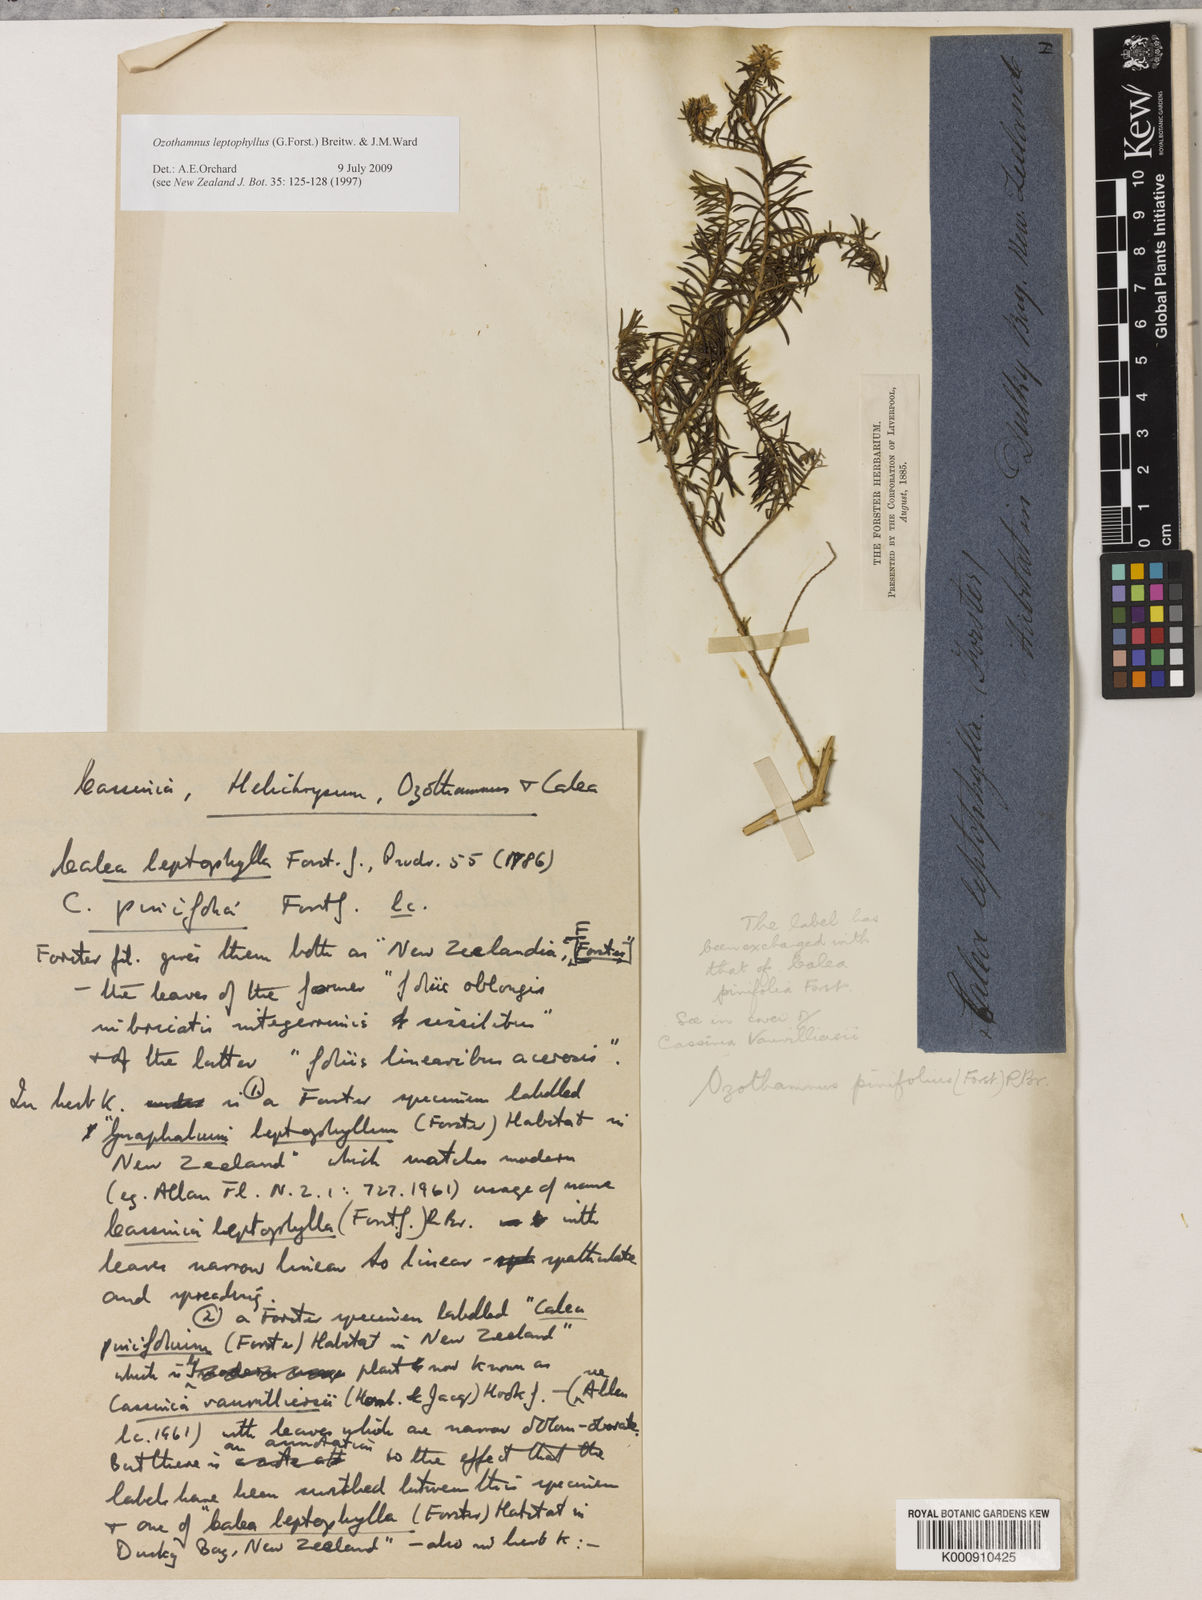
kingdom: Plantae
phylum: Tracheophyta
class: Magnoliopsida
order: Asterales
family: Asteraceae
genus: Ozothamnus
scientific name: Ozothamnus leptophyllus
